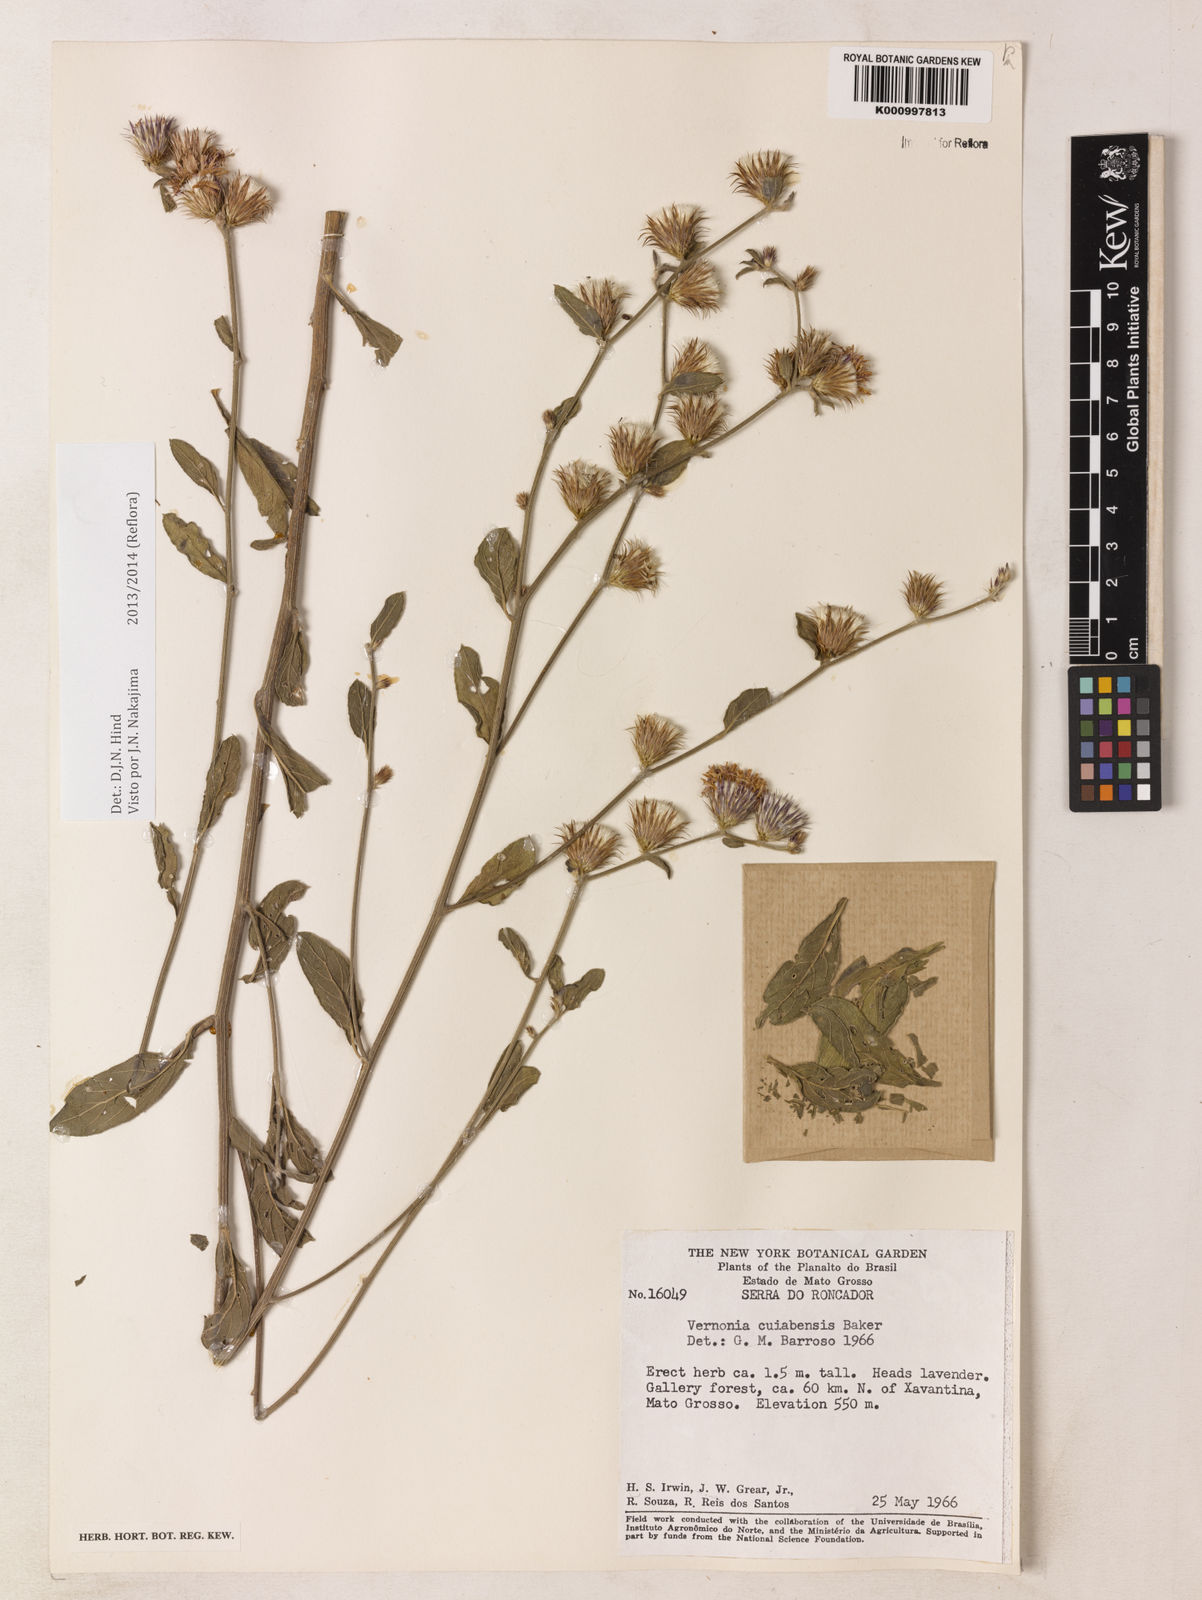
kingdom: Plantae
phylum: Tracheophyta
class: Magnoliopsida
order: Asterales
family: Asteraceae
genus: Lessingianthus
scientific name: Lessingianthus bardanioides
